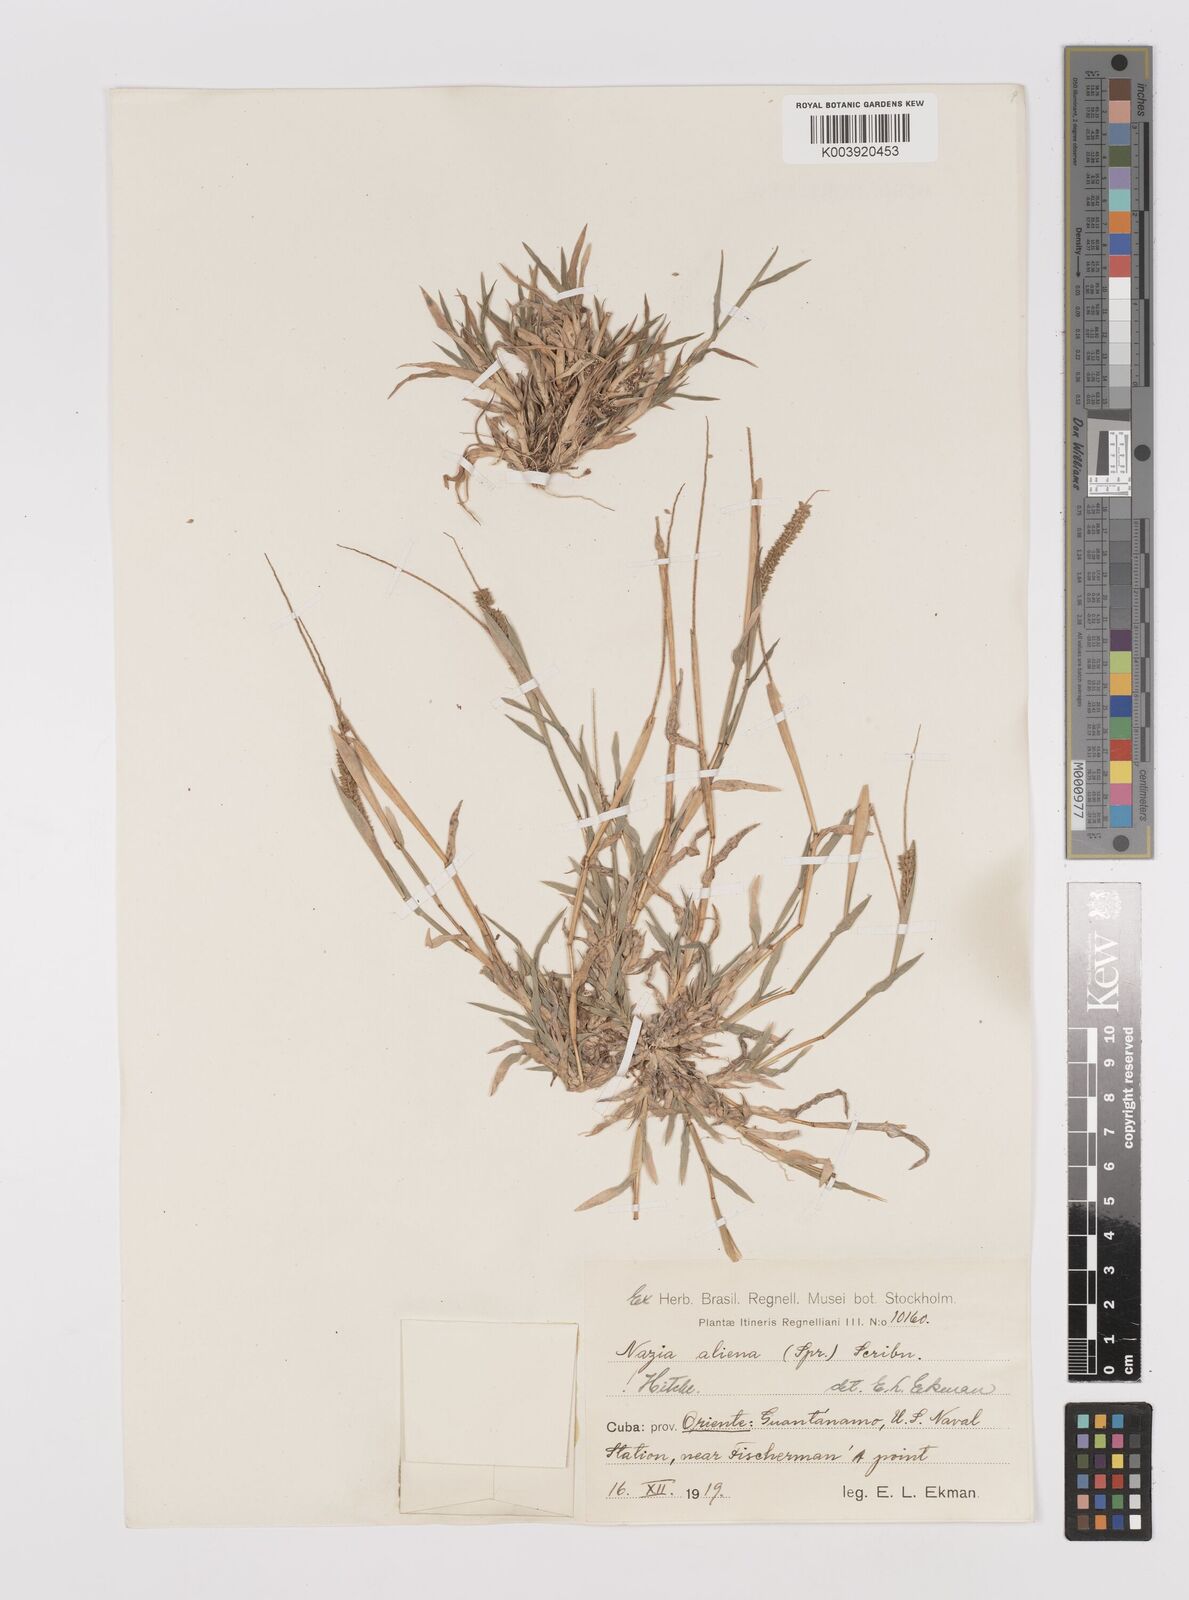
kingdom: Plantae
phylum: Tracheophyta
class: Liliopsida
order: Poales
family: Poaceae
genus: Tragus
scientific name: Tragus berteronianus
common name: African bur-grass
